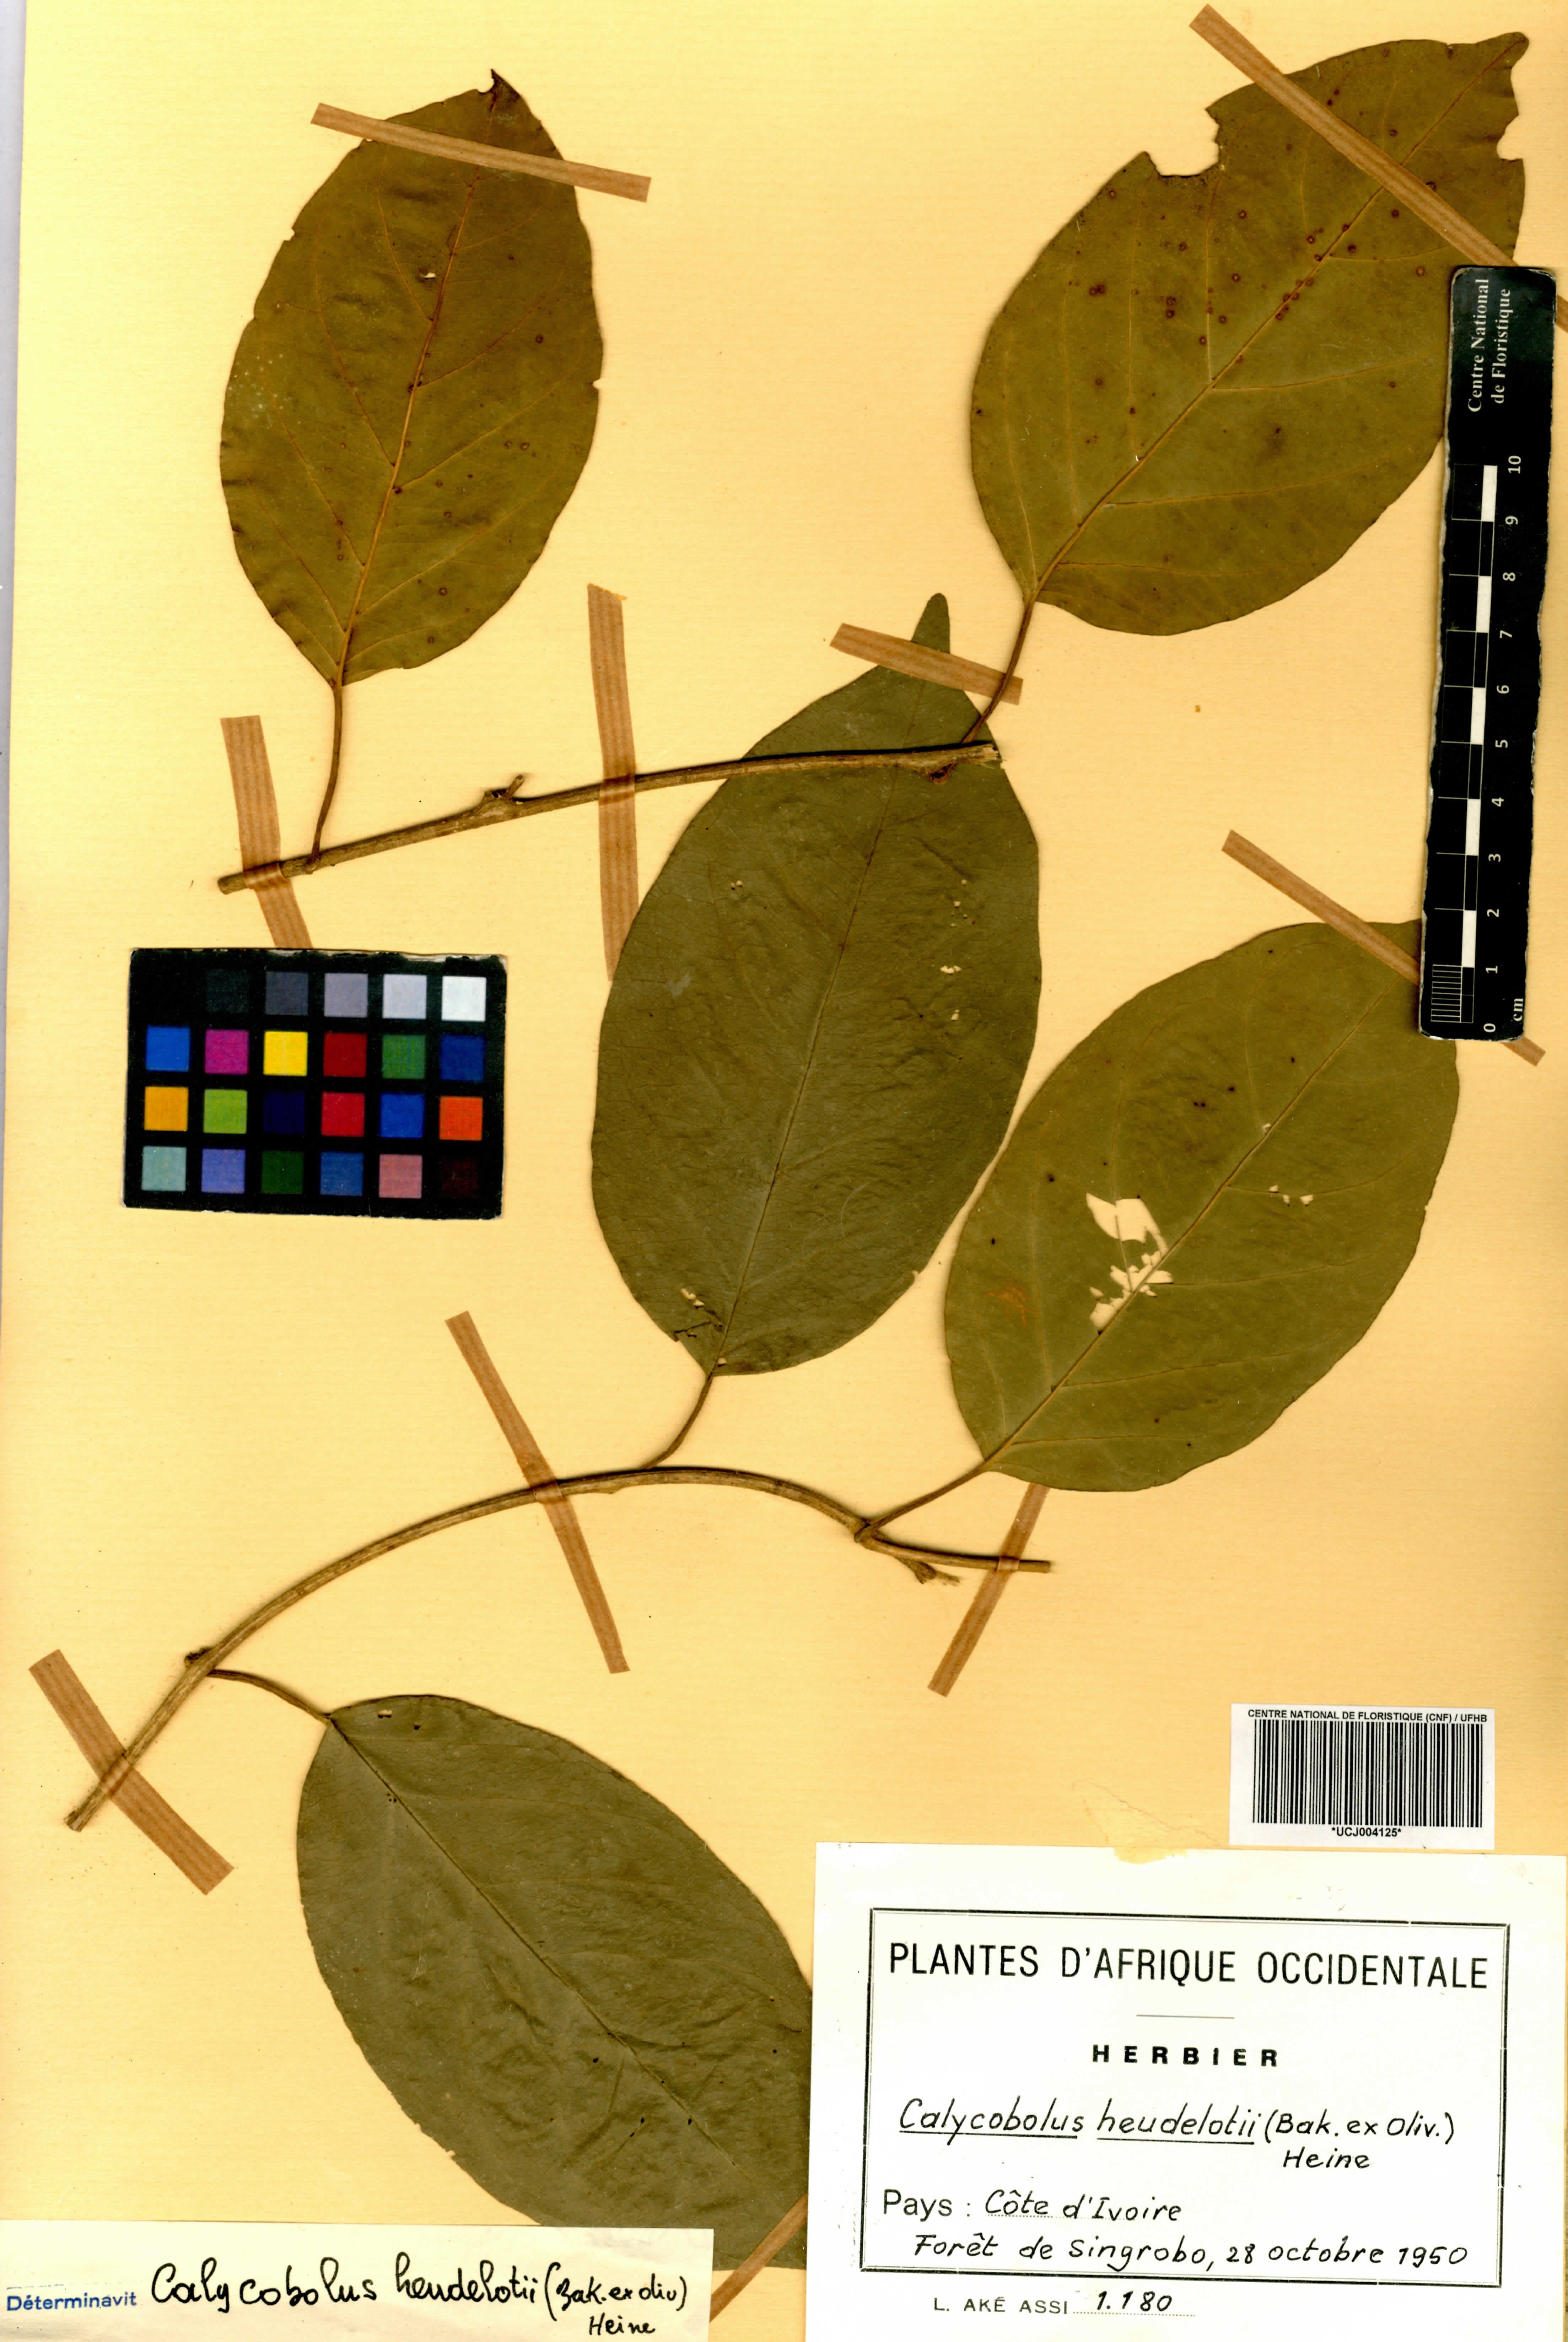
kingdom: Plantae
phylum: Tracheophyta
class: Magnoliopsida
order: Solanales
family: Convolvulaceae
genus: Calycobolus
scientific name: Calycobolus heudelotii
